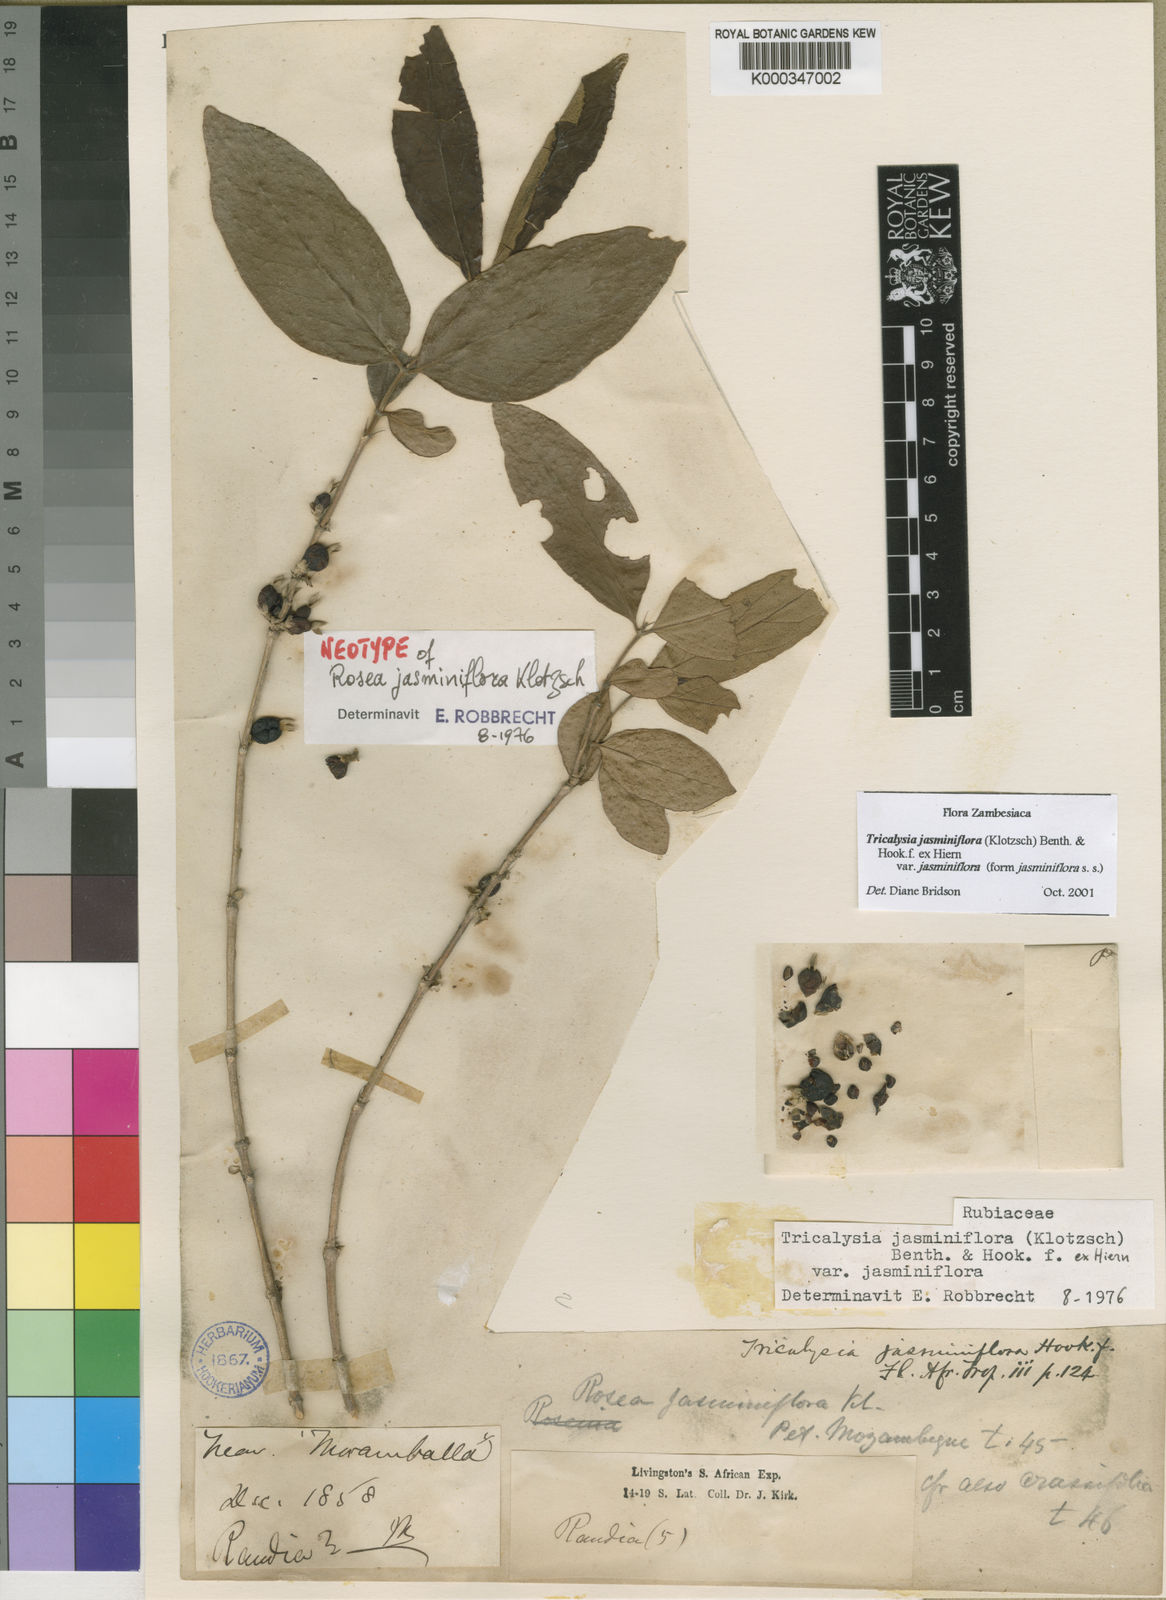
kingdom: Plantae
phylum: Tracheophyta
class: Magnoliopsida
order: Gentianales
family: Rubiaceae
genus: Tricalysia
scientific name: Tricalysia jasminiflora
